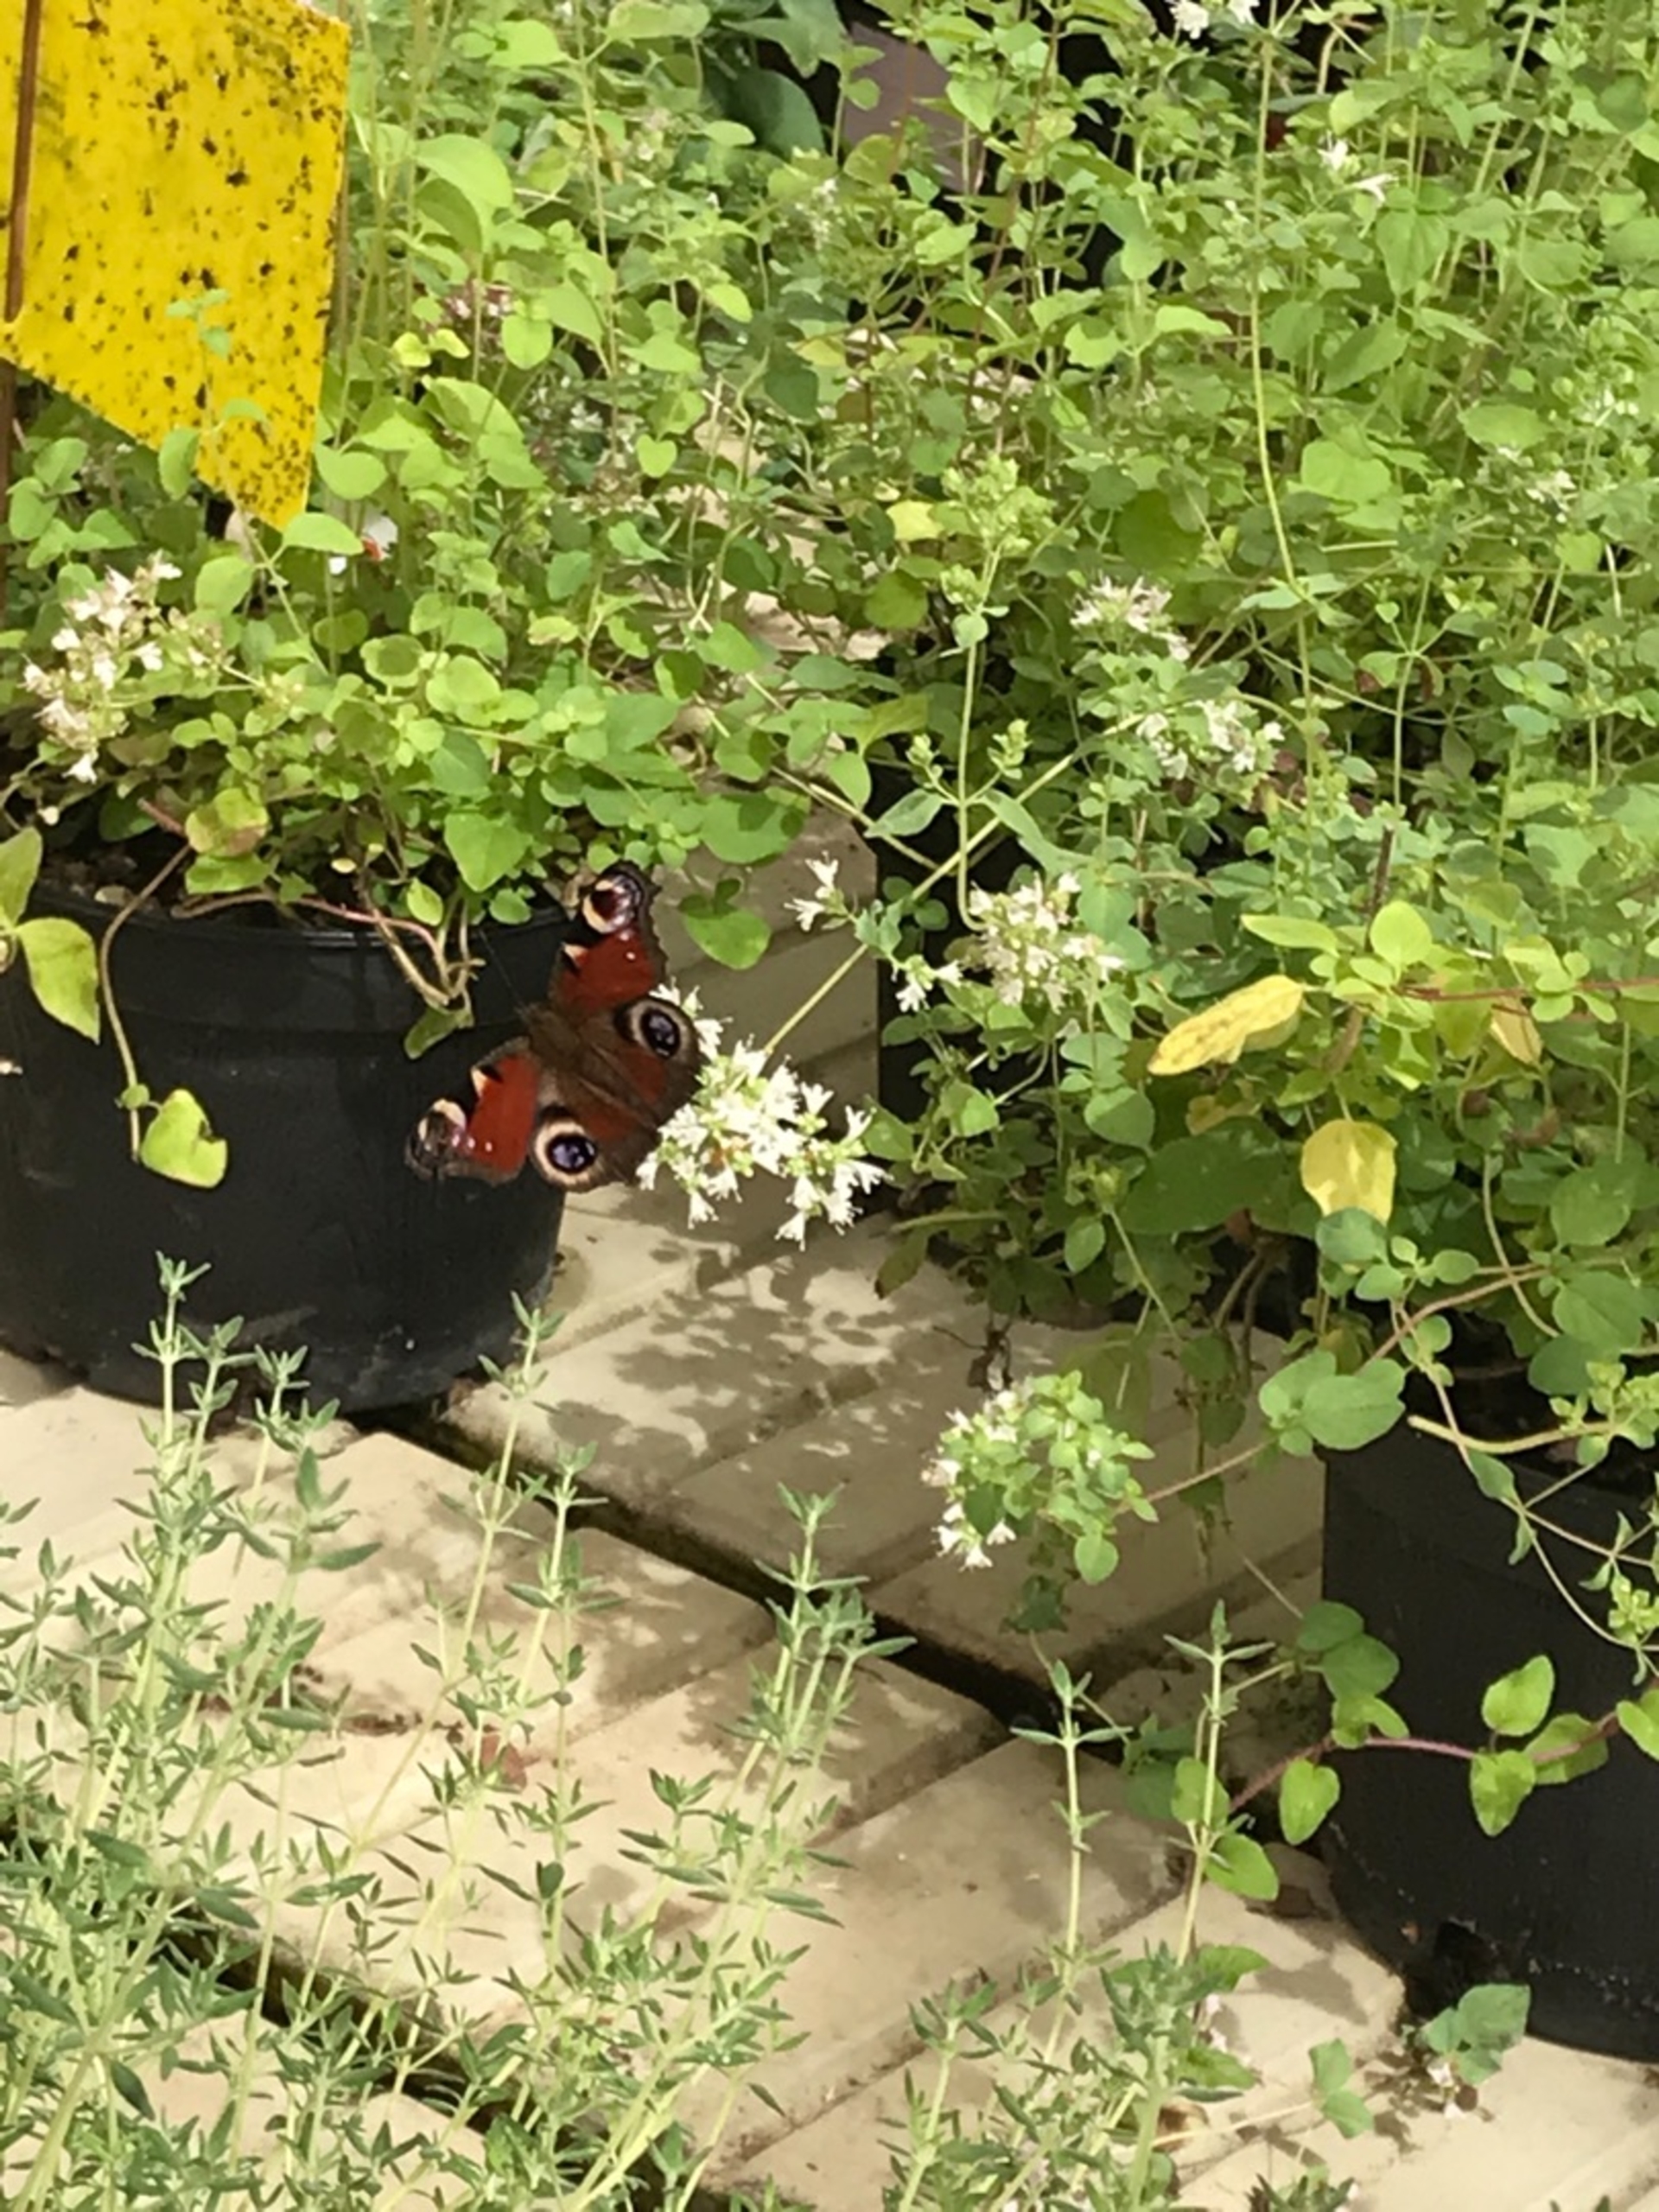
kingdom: Animalia
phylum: Arthropoda
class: Insecta
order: Lepidoptera
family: Nymphalidae
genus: Aglais
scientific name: Aglais io
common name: Dagpåfugleøje
